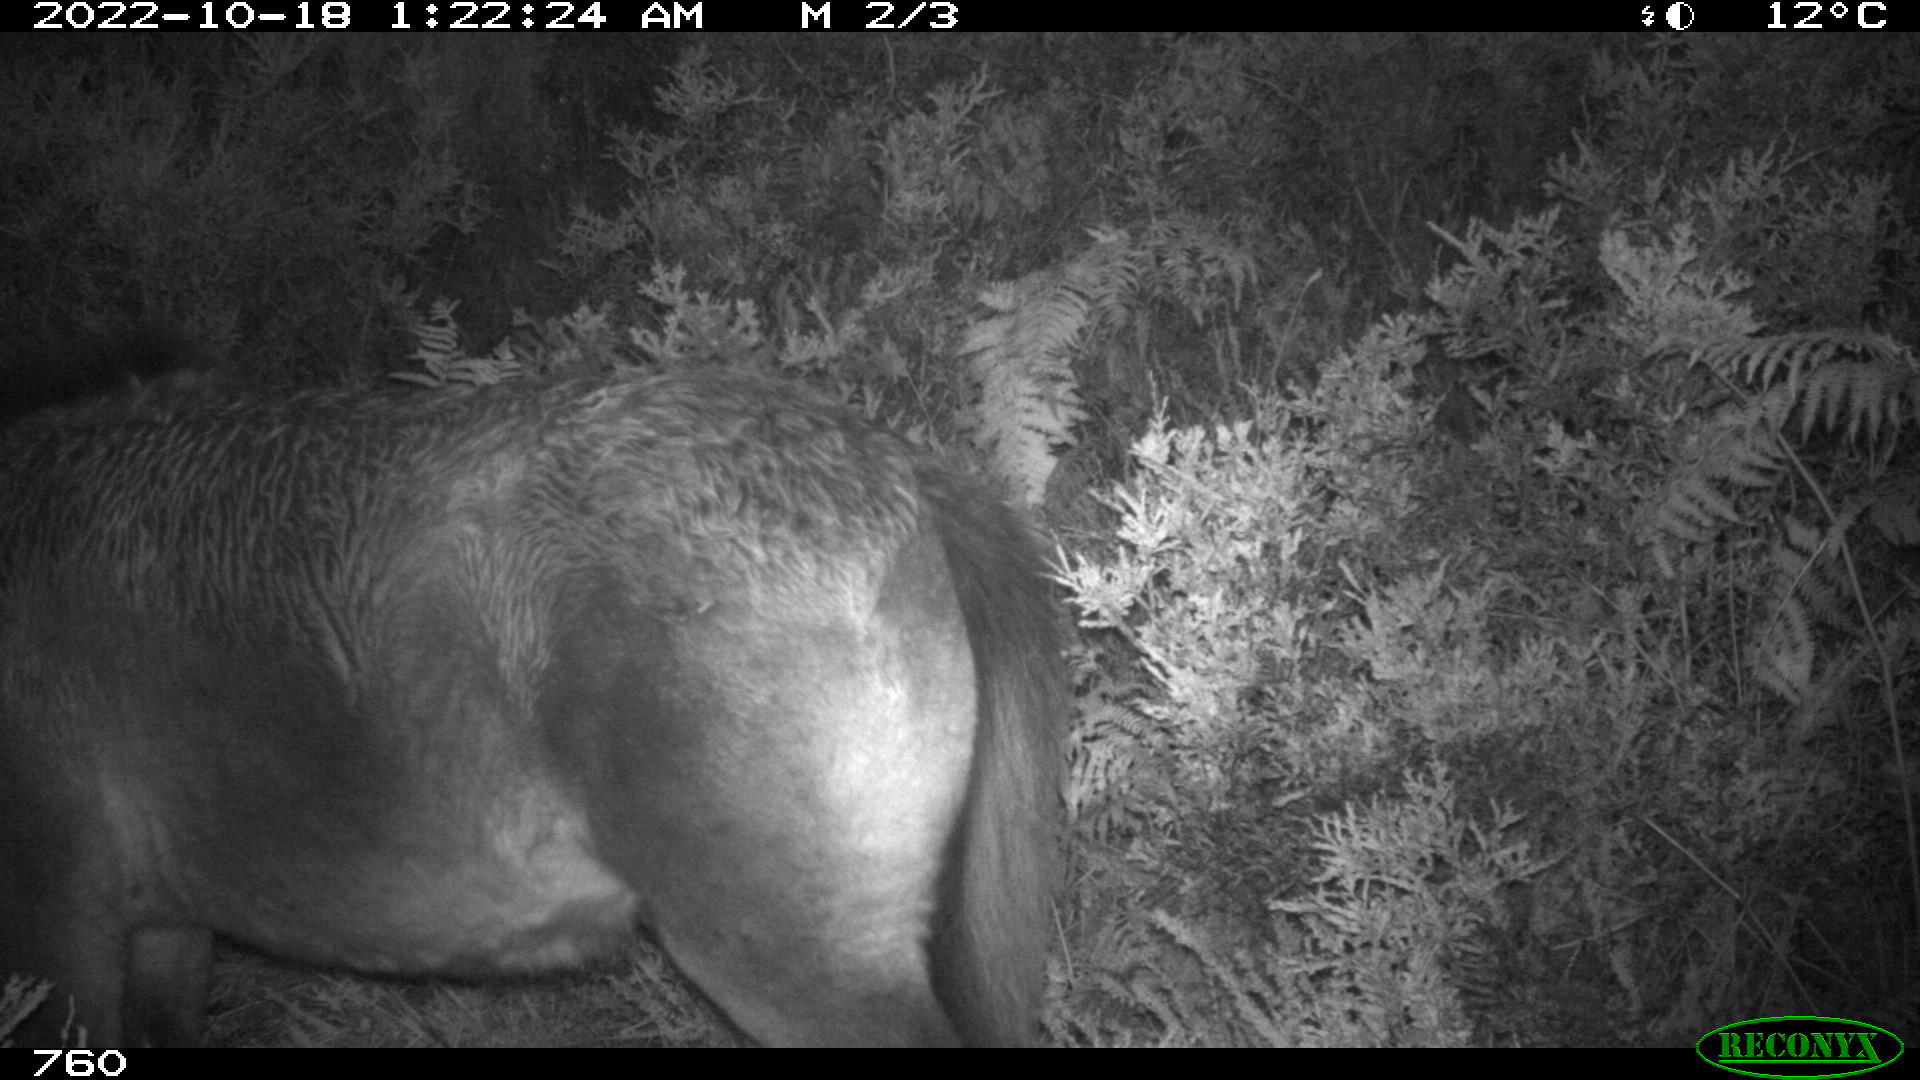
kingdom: Animalia
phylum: Chordata
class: Mammalia
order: Perissodactyla
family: Equidae
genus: Equus
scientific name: Equus caballus
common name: Horse
